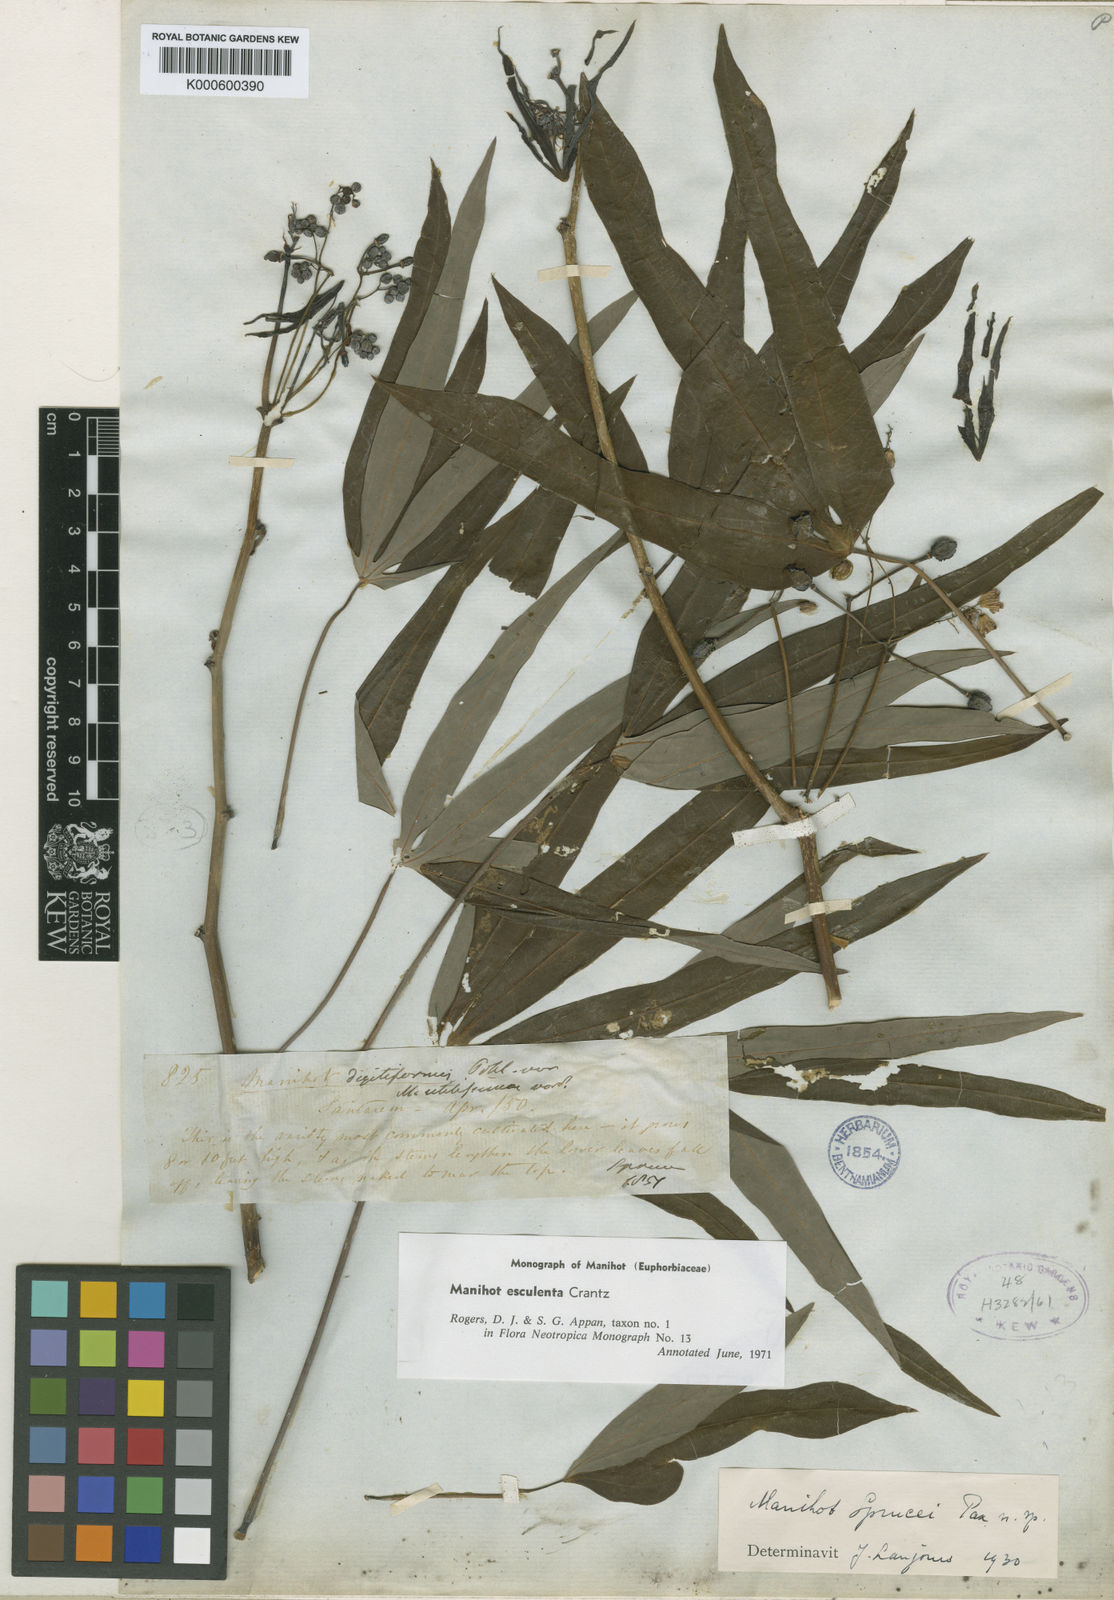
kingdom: Plantae
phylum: Tracheophyta
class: Magnoliopsida
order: Malpighiales
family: Euphorbiaceae
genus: Manihot
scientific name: Manihot esculenta
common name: Cassava
